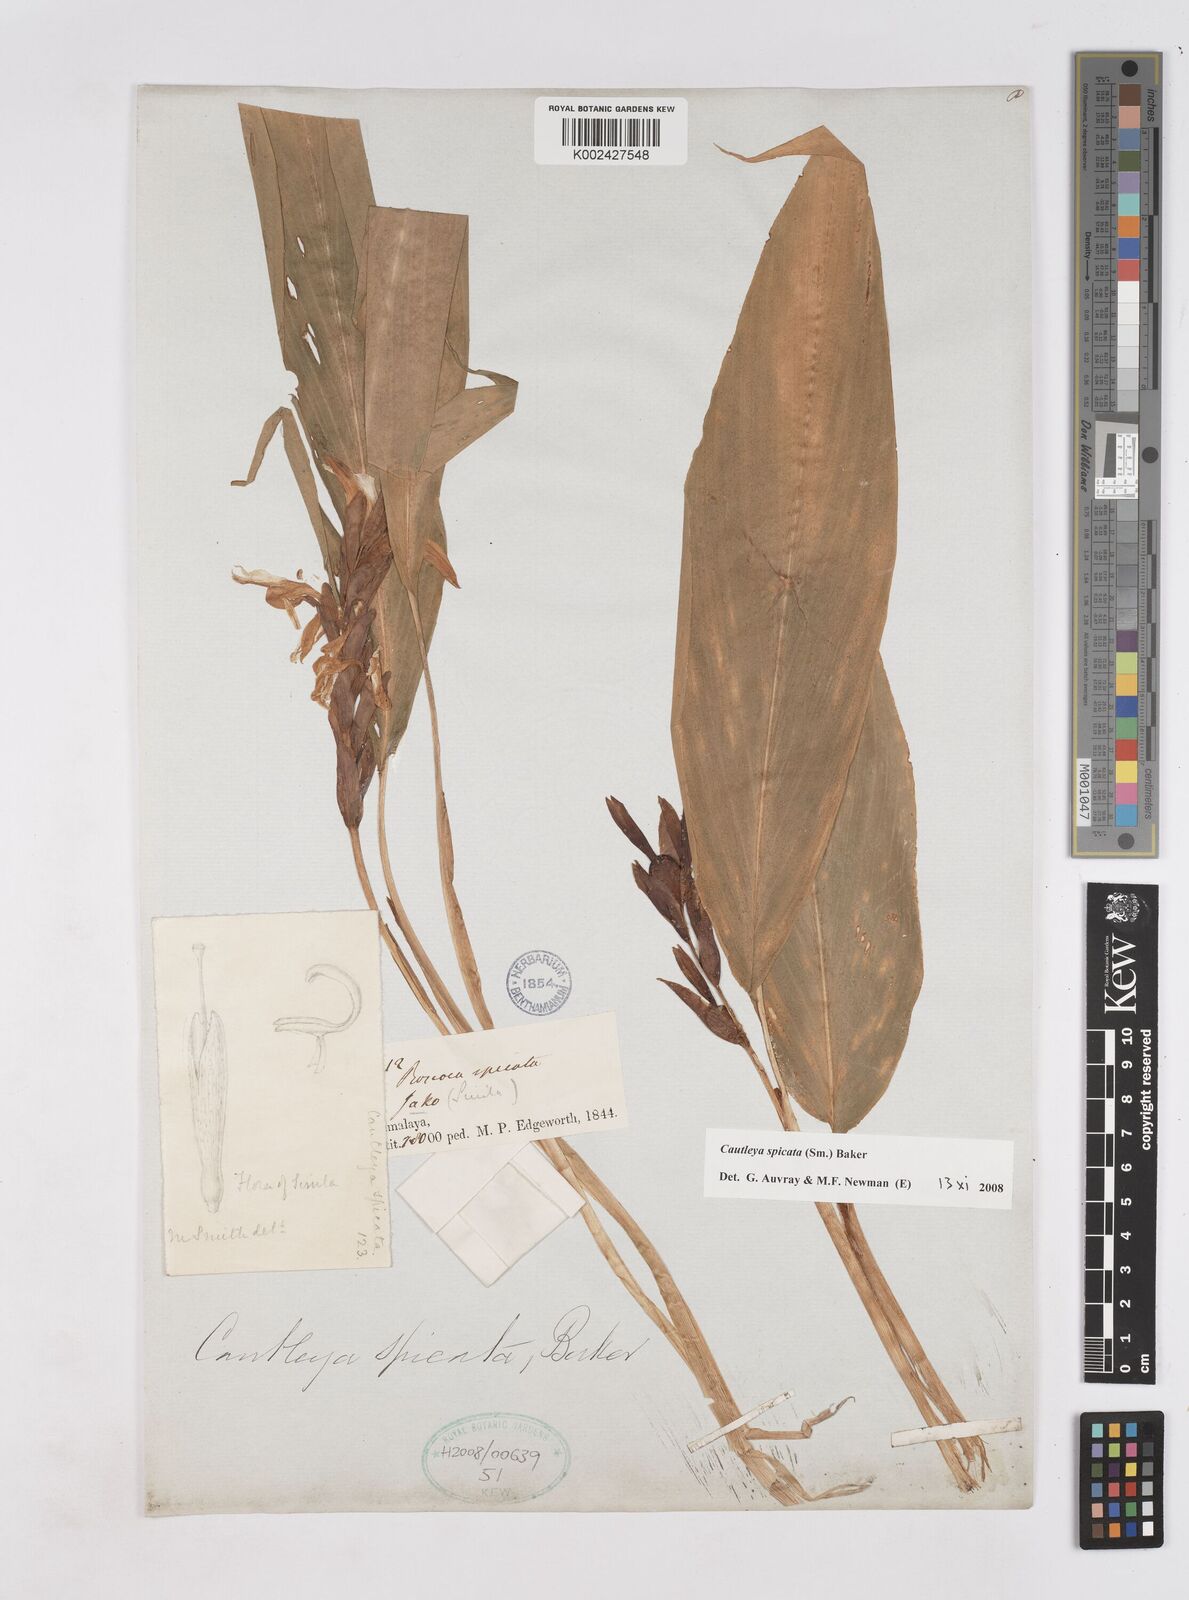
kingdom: Plantae
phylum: Tracheophyta
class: Liliopsida
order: Zingiberales
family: Zingiberaceae
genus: Cautleya
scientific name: Cautleya spicata
